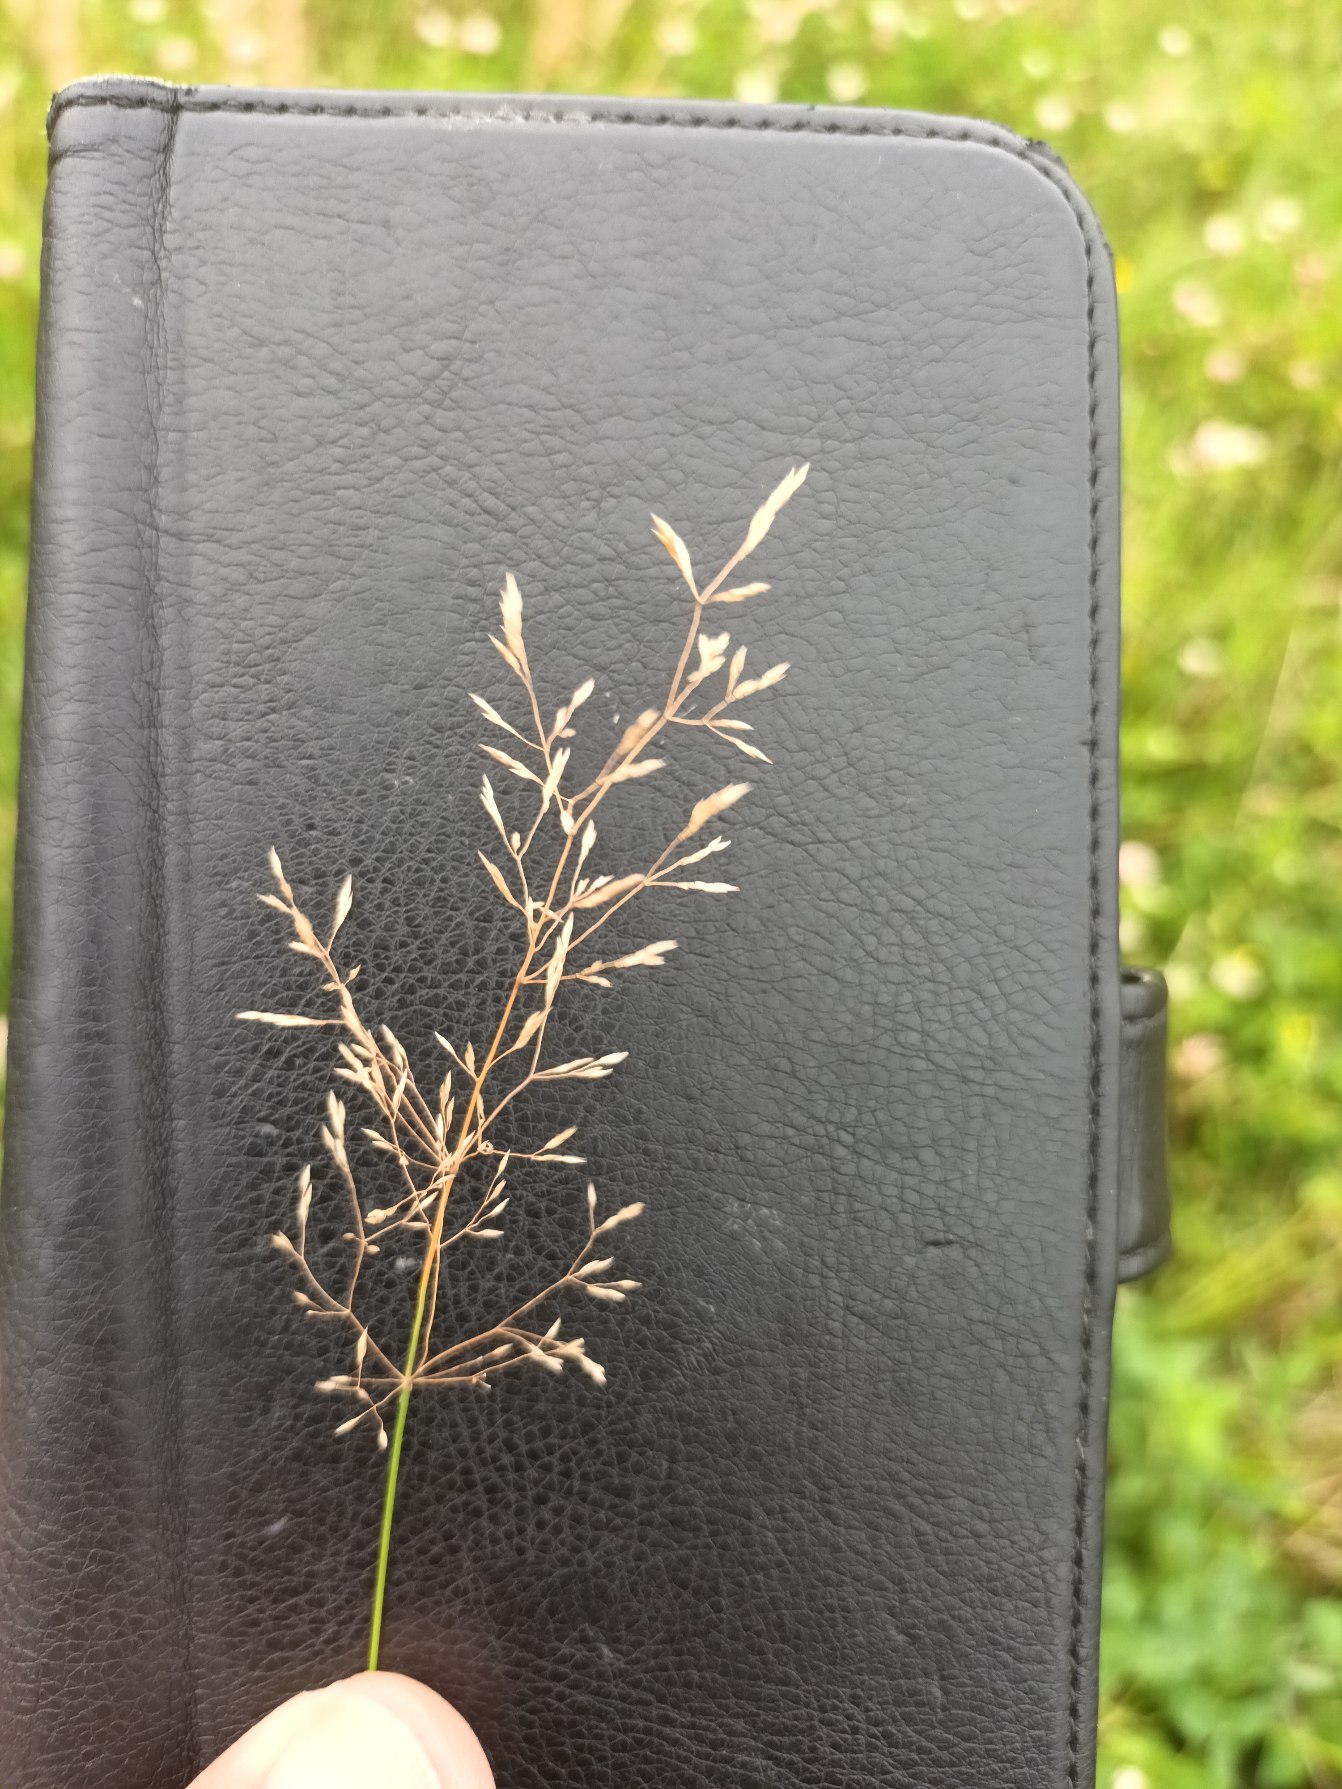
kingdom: Plantae
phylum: Tracheophyta
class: Liliopsida
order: Poales
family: Poaceae
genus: Agrostis
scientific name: Agrostis capillaris
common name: Almindelig hvene
